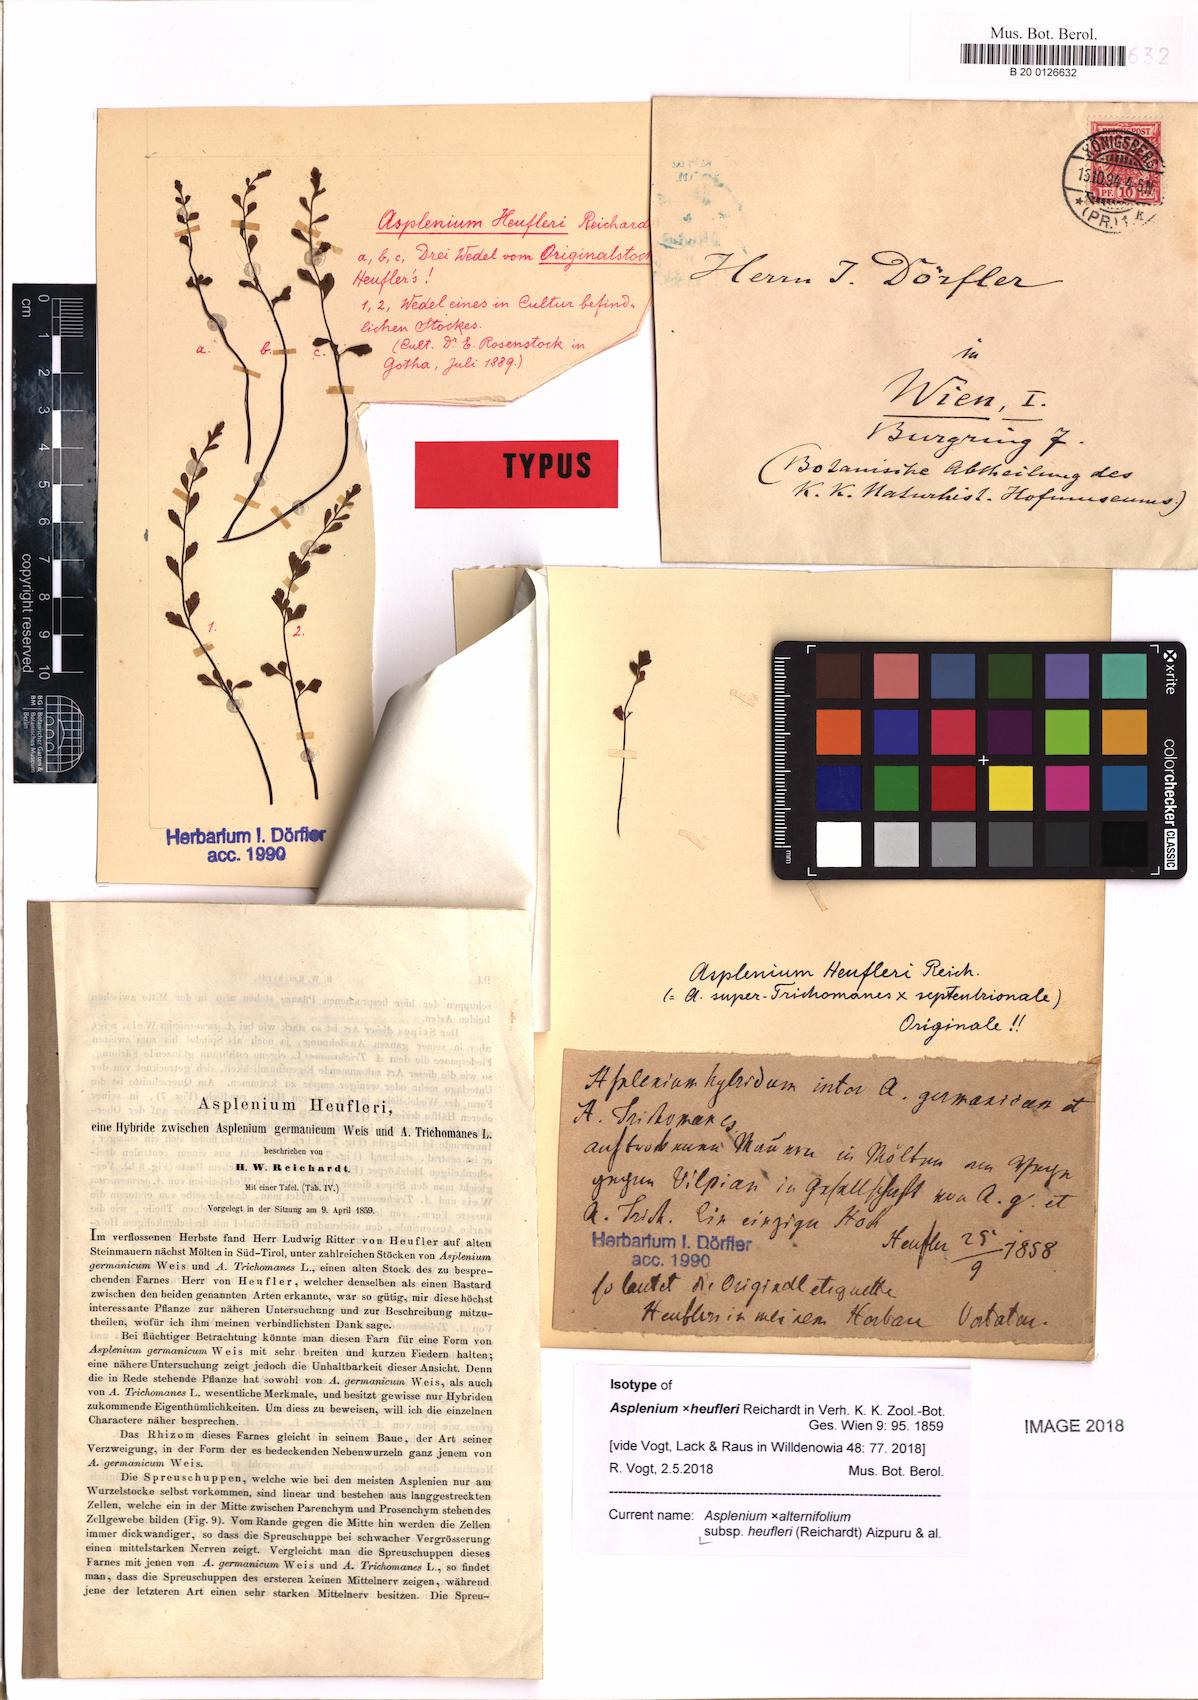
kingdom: Plantae
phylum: Tracheophyta
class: Polypodiopsida
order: Polypodiales
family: Aspleniaceae
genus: Asplenium
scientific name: Asplenium heufleri
